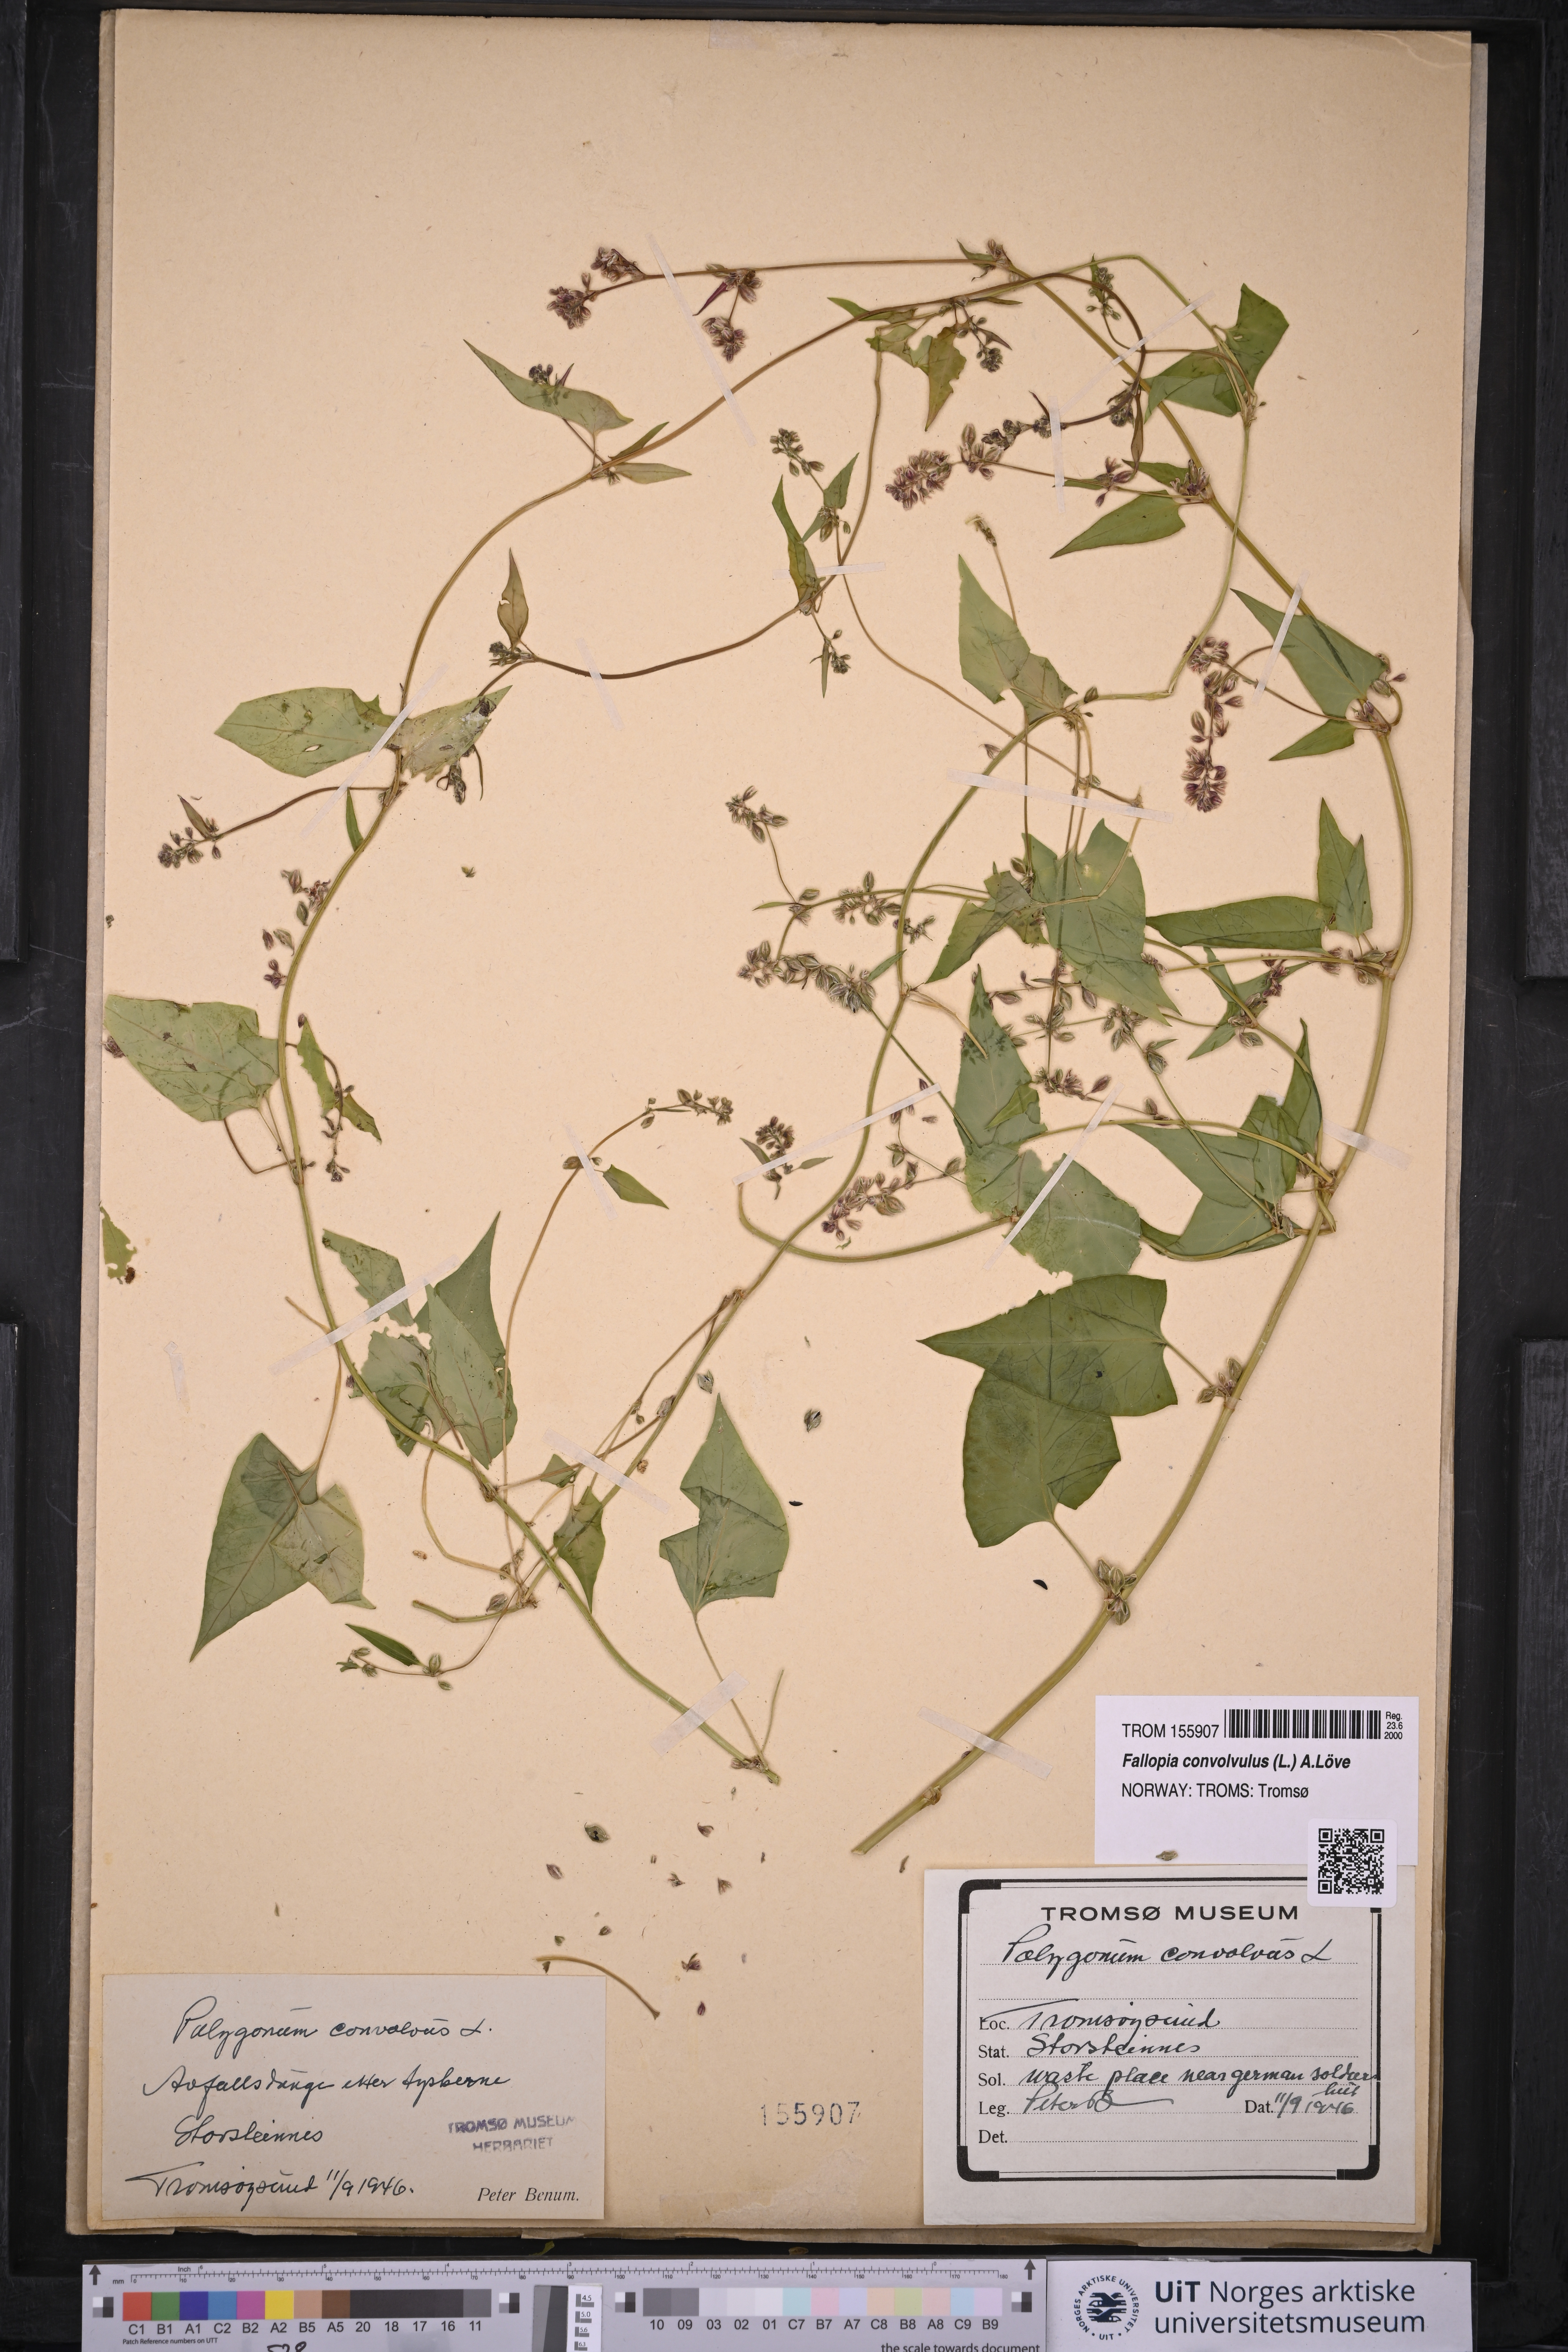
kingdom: Plantae
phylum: Tracheophyta
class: Magnoliopsida
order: Caryophyllales
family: Polygonaceae
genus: Fallopia
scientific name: Fallopia convolvulus
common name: Black bindweed
